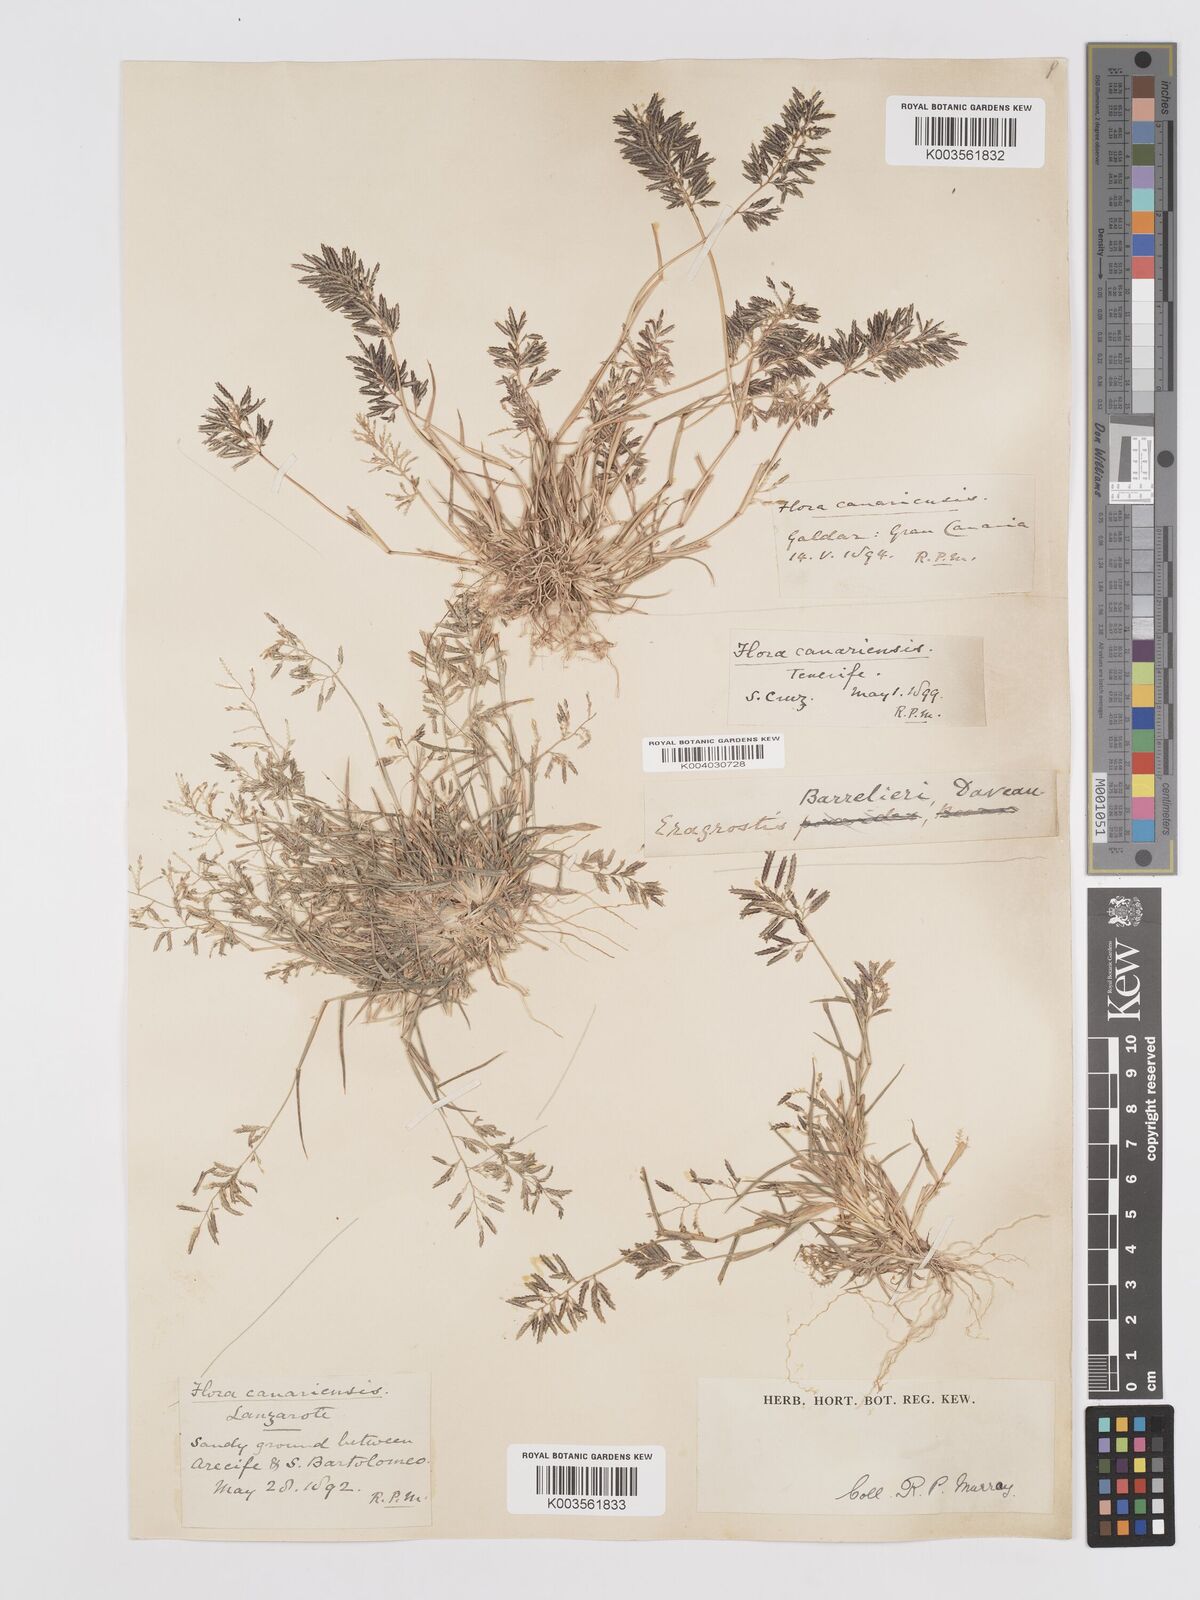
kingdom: Plantae
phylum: Tracheophyta
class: Liliopsida
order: Poales
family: Poaceae
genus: Eragrostis
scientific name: Eragrostis barrelieri
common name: Mediterranean lovegrass
